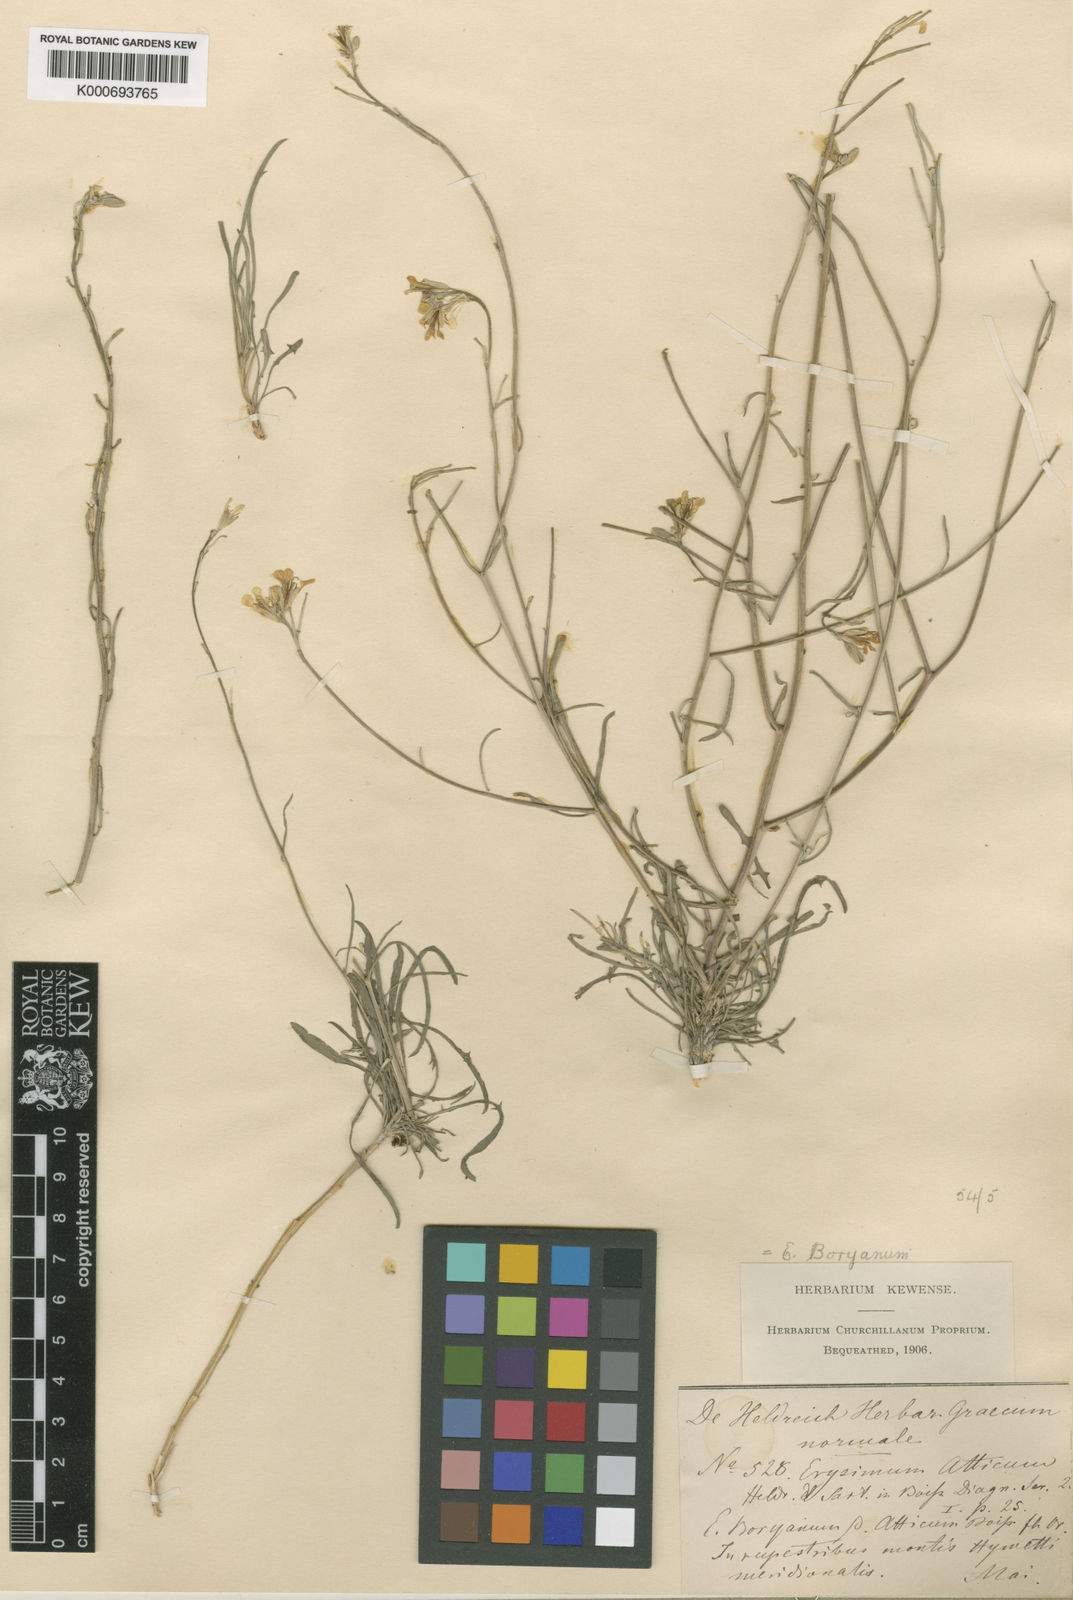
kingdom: Plantae
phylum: Tracheophyta
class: Magnoliopsida
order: Brassicales
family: Brassicaceae
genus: Erysimum
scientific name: Erysimum
